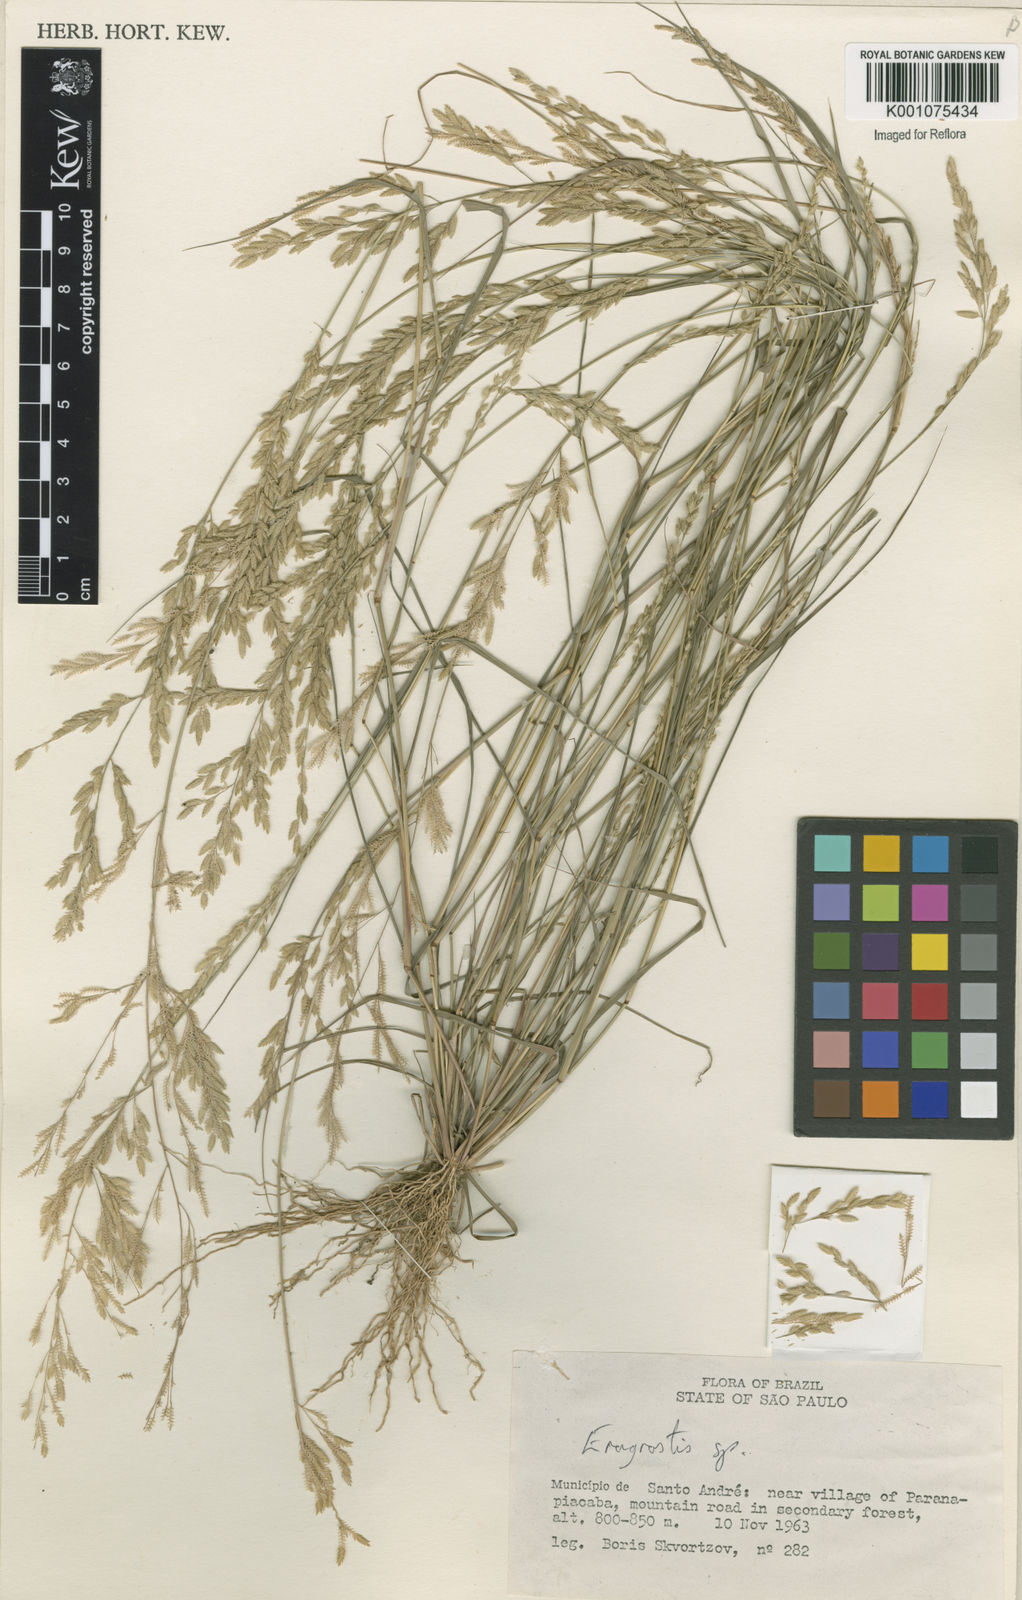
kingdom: Plantae
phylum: Tracheophyta
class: Liliopsida
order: Poales
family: Poaceae
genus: Eragrostis
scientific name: Eragrostis rufescens
